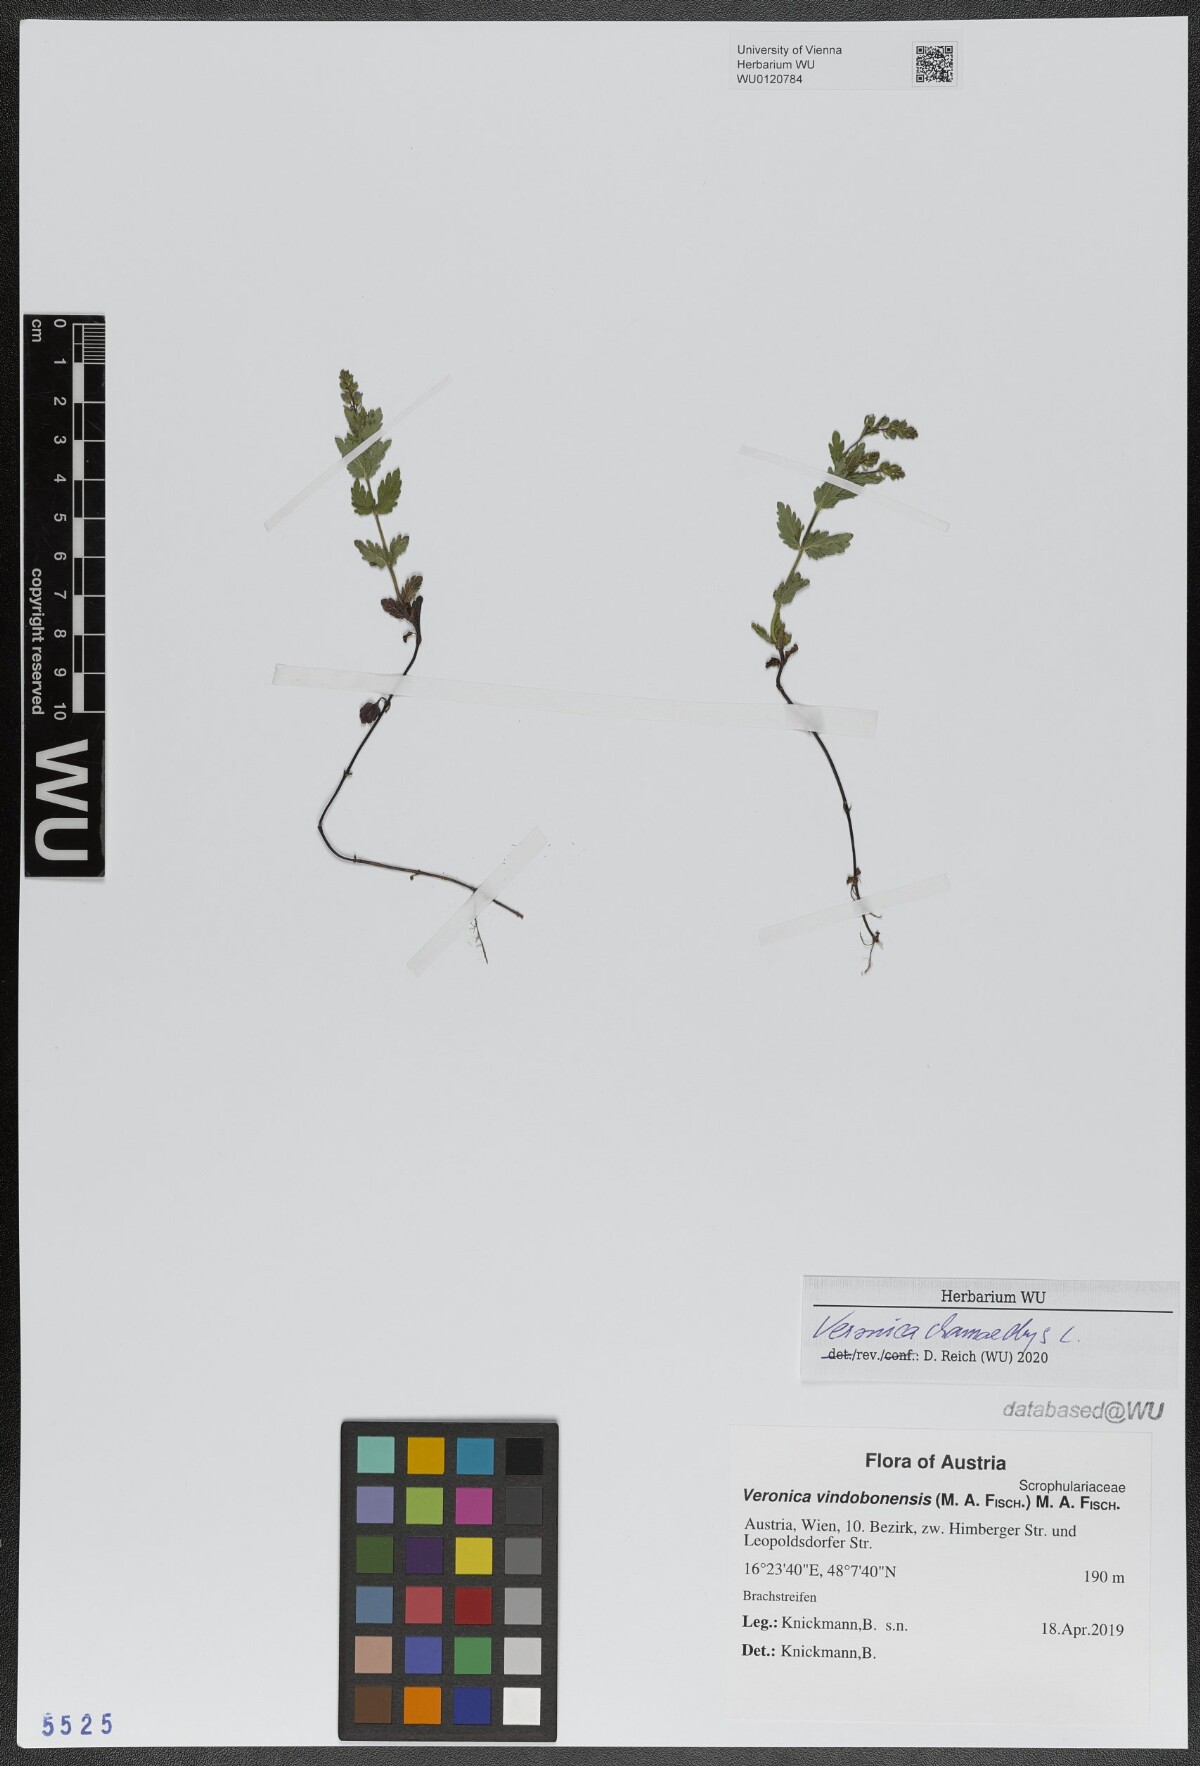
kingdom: Plantae
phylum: Tracheophyta
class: Magnoliopsida
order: Lamiales
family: Plantaginaceae
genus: Veronica
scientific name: Veronica chamaedrys
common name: Germander speedwell
